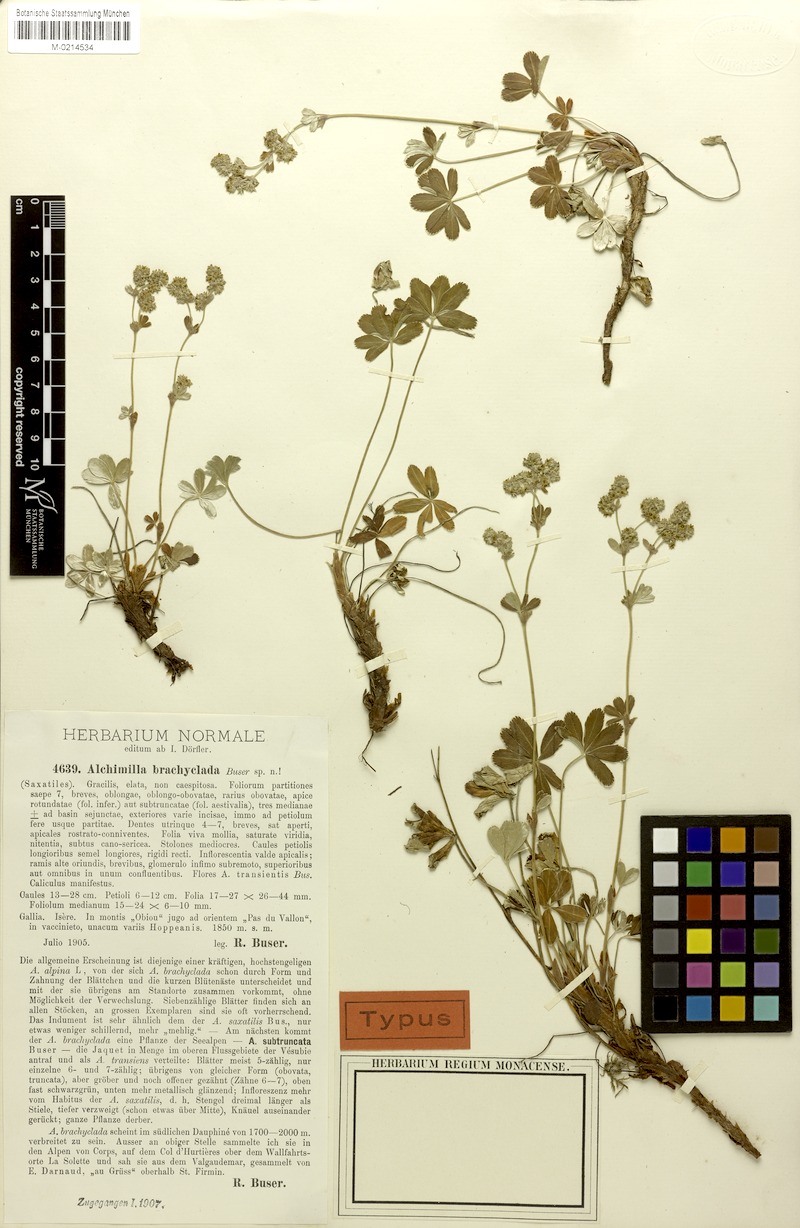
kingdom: Plantae
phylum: Tracheophyta
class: Magnoliopsida
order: Rosales
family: Rosaceae
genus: Alchemilla
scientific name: Alchemilla transiens
